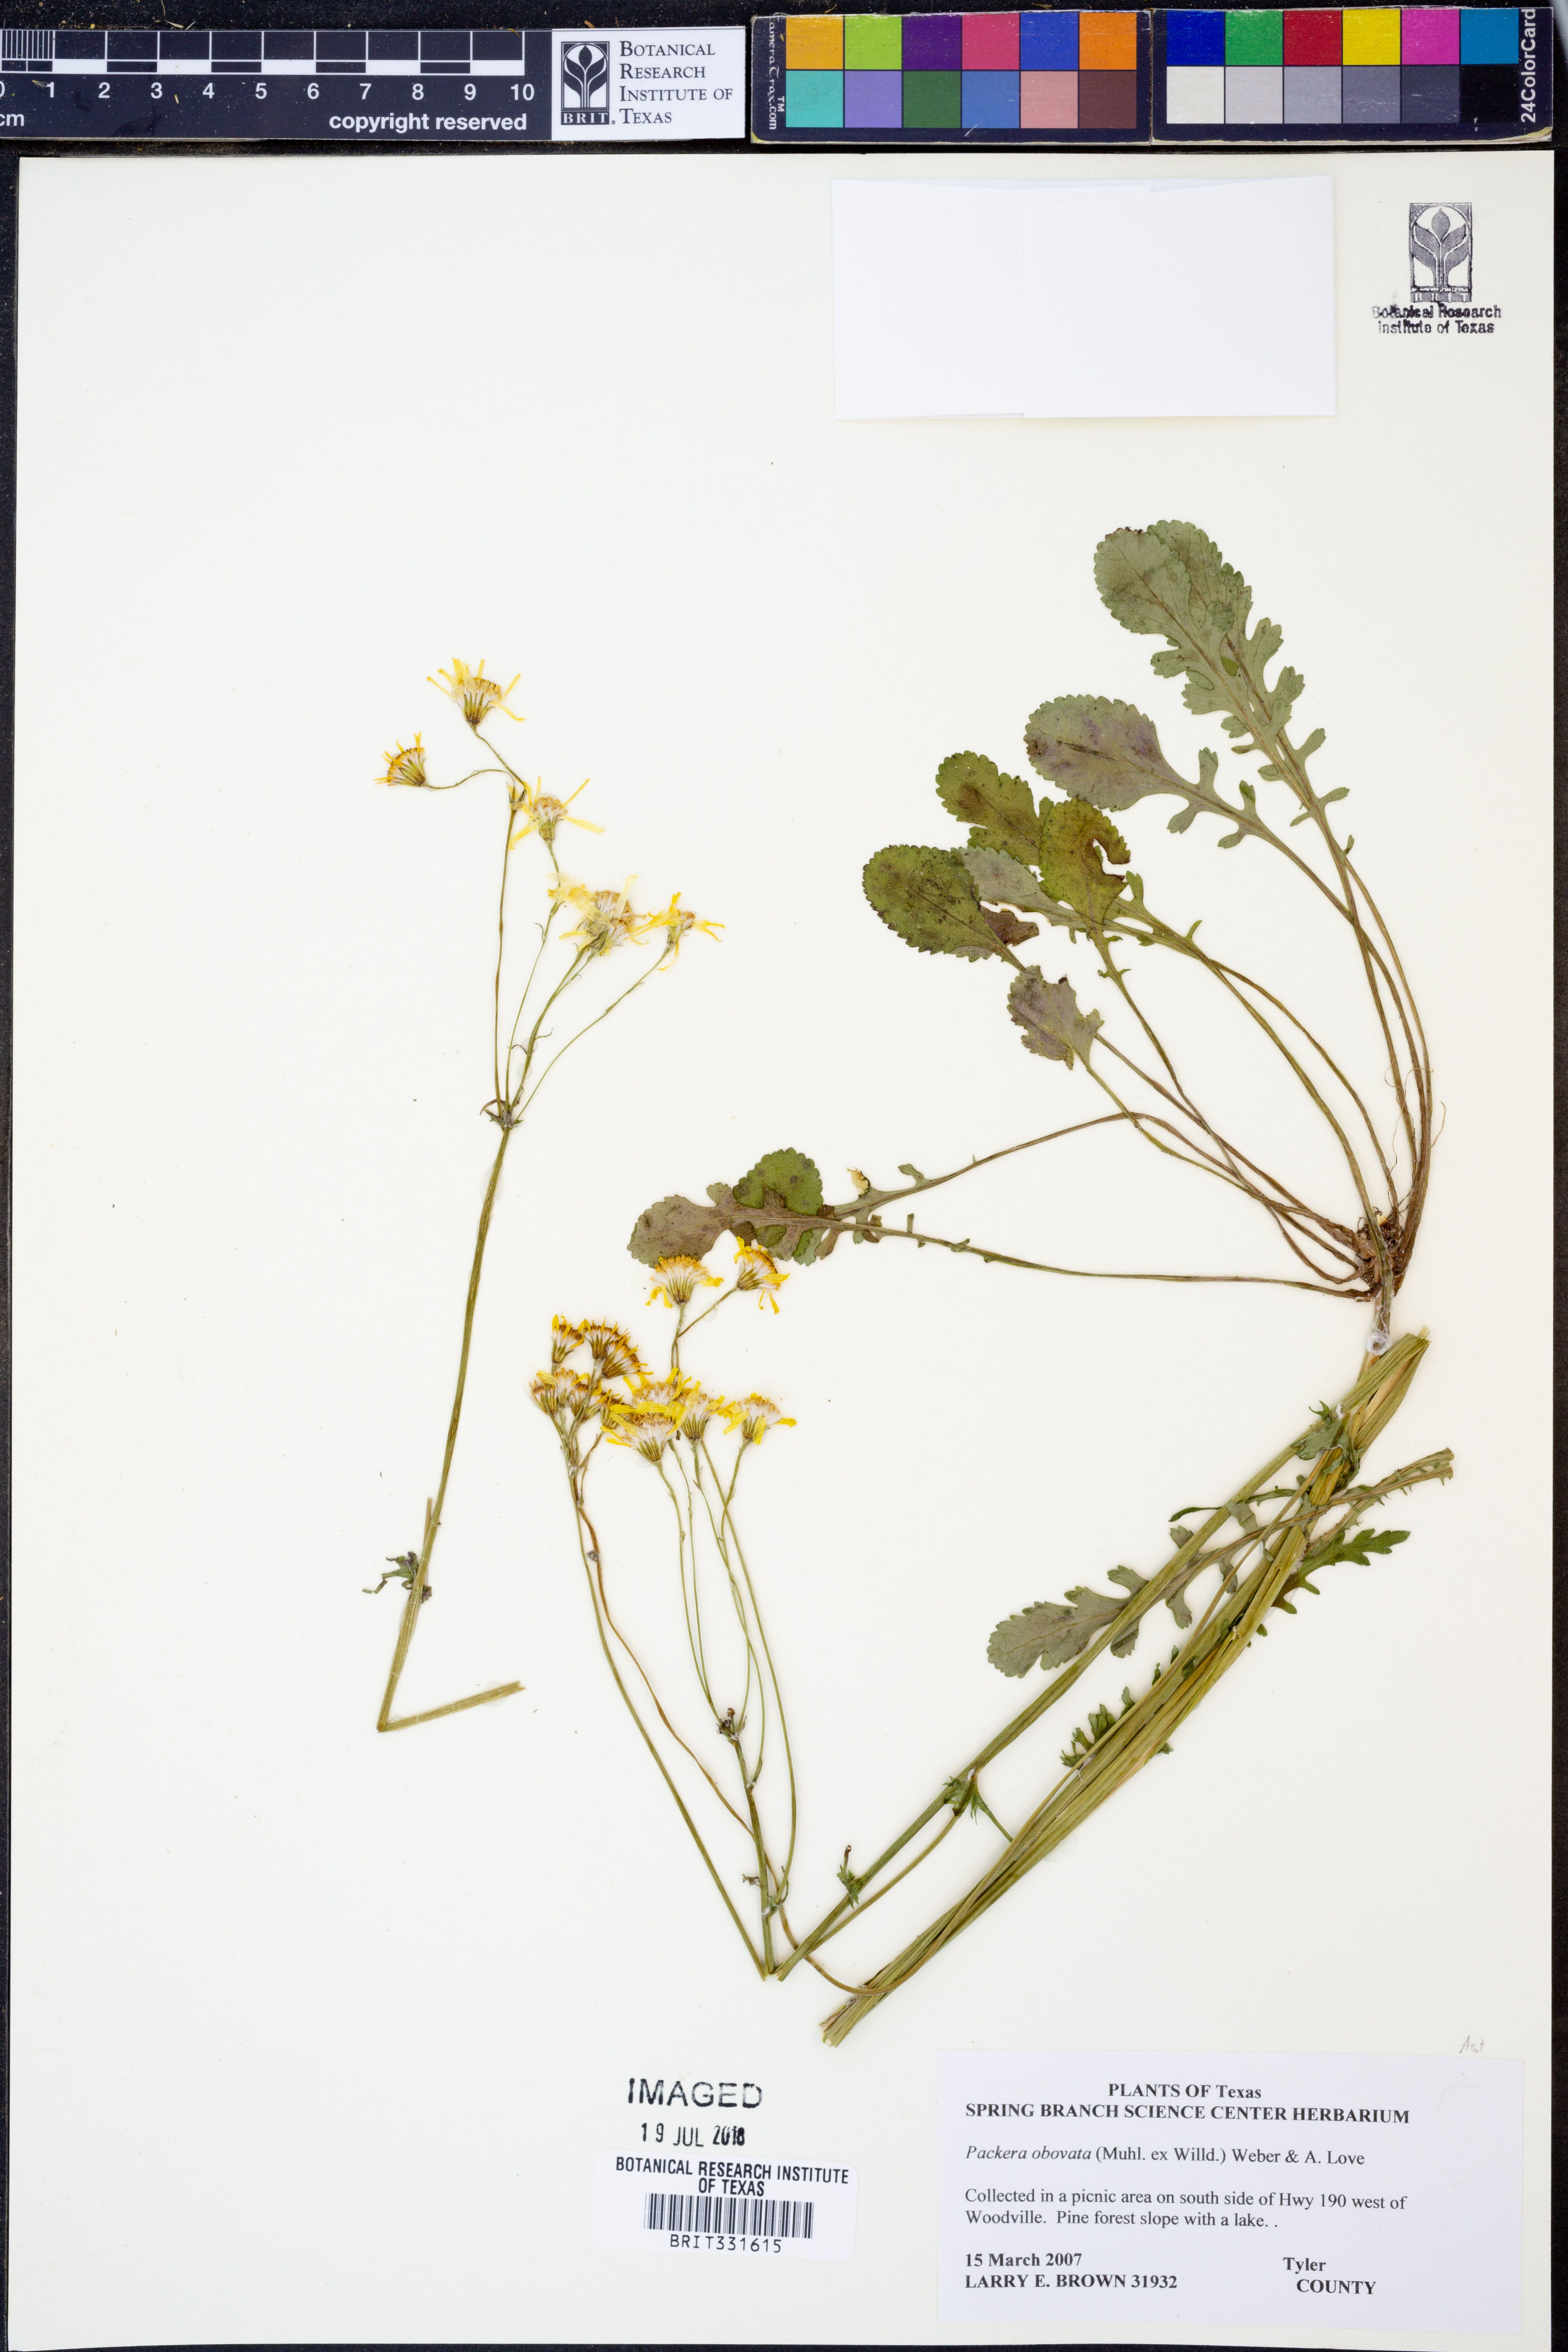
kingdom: Plantae
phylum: Tracheophyta
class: Magnoliopsida
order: Asterales
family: Asteraceae
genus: Packera
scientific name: Packera obovata
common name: Round-leaf ragwort
